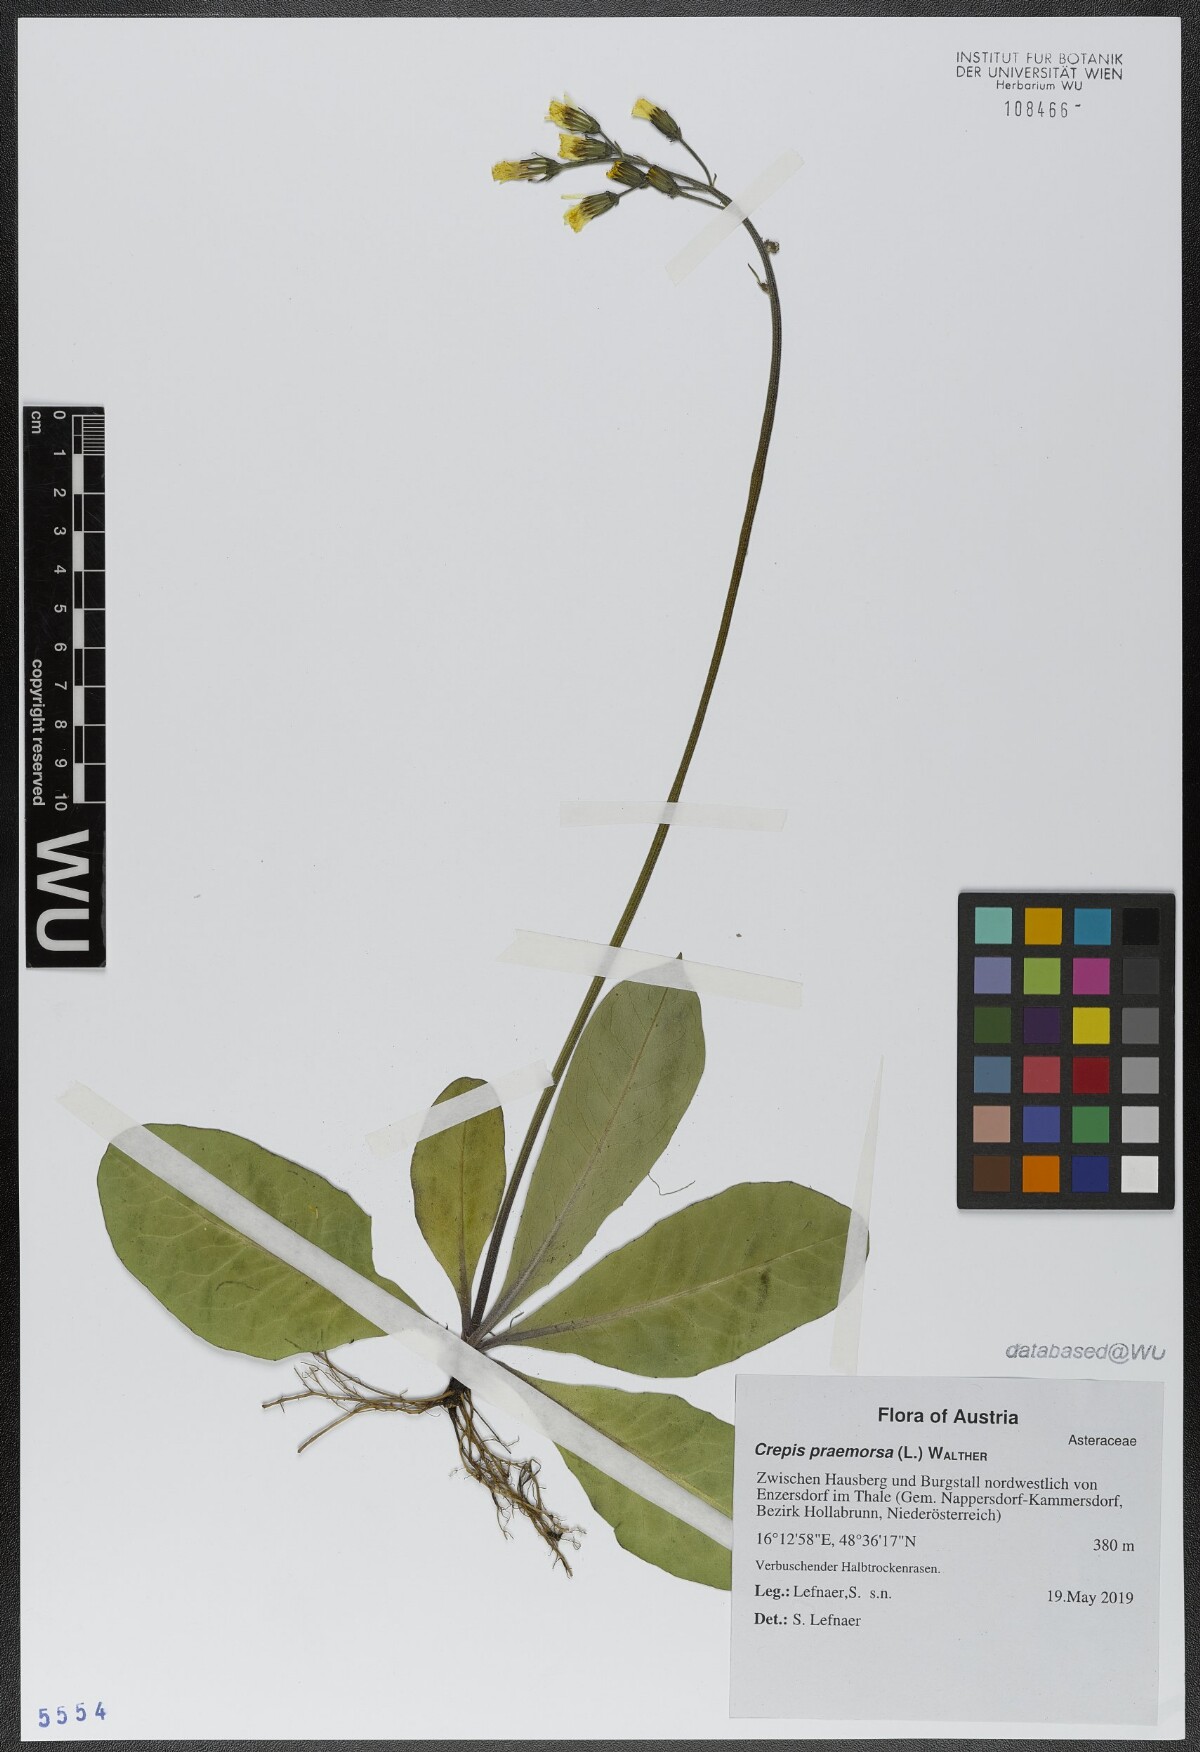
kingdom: Plantae
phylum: Tracheophyta
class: Magnoliopsida
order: Asterales
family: Asteraceae
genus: Crepis
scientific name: Crepis praemorsa
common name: Leafless hawk's-beard
